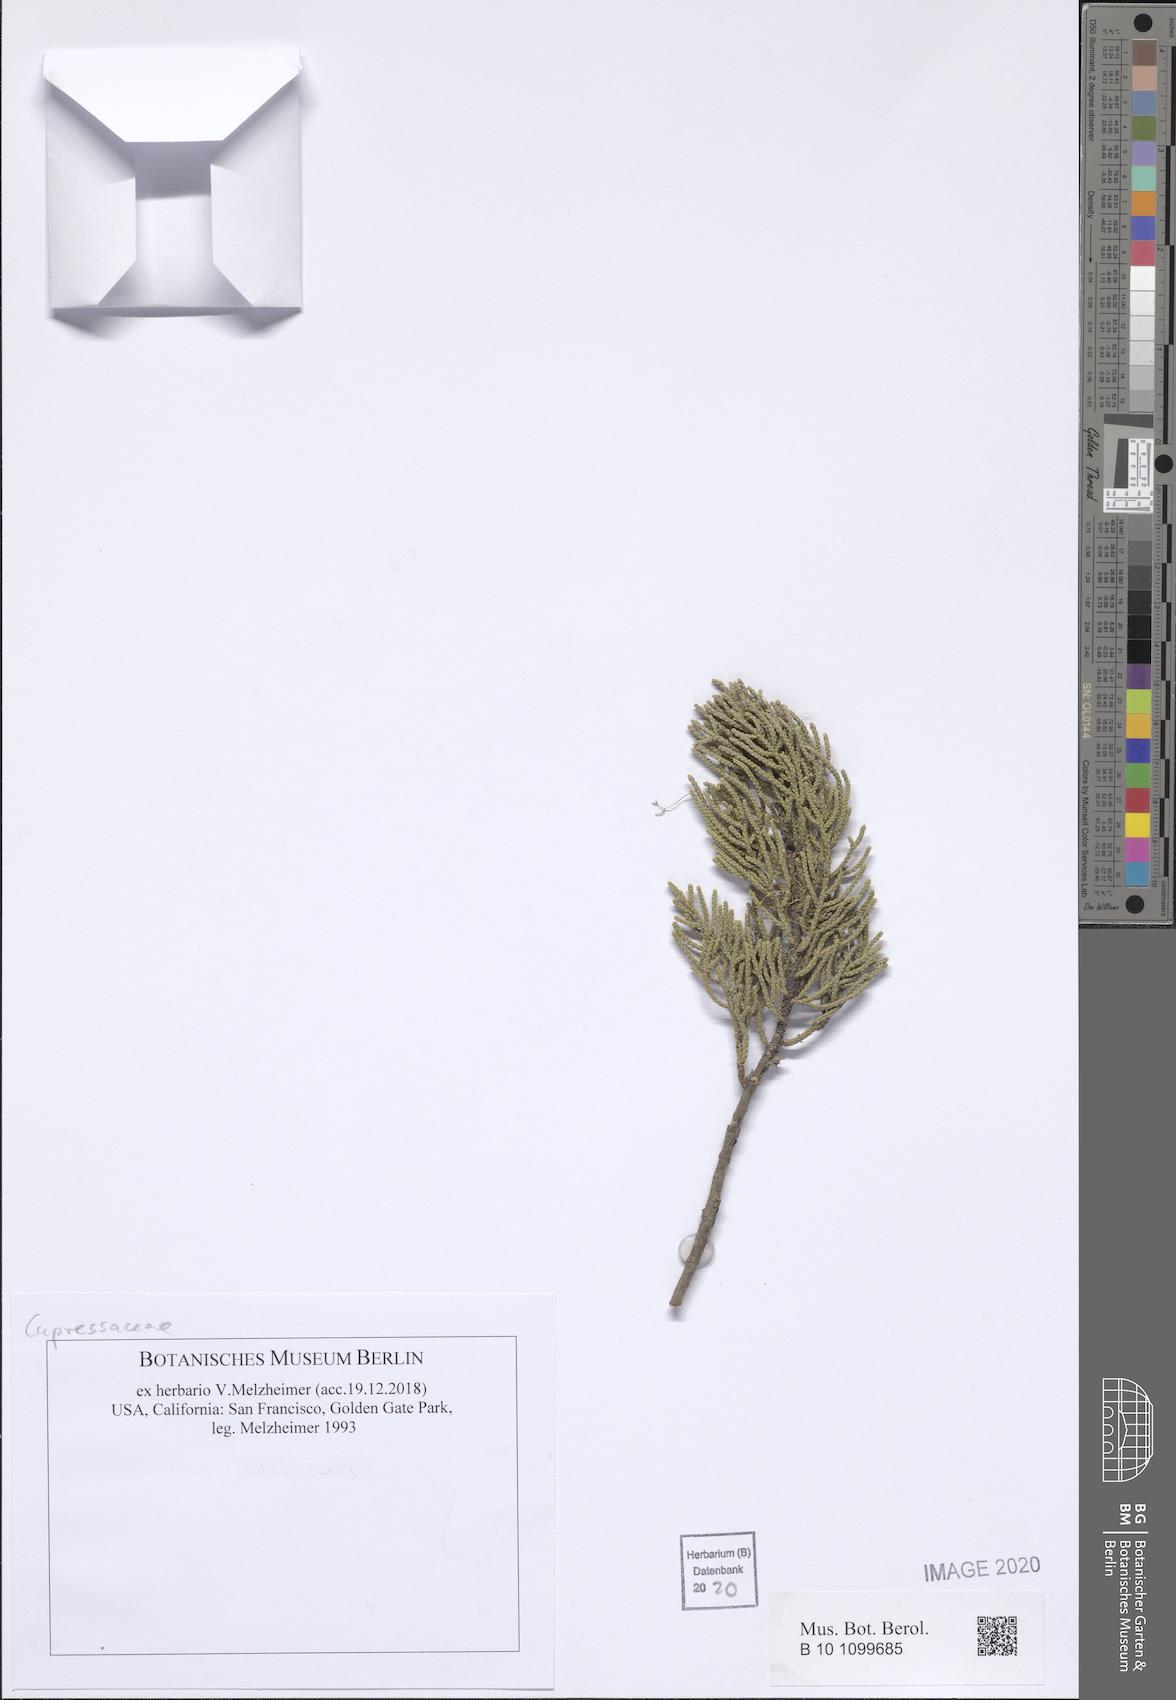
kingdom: Plantae
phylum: Tracheophyta
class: Pinopsida
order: Pinales
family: Cupressaceae
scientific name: Cupressaceae
